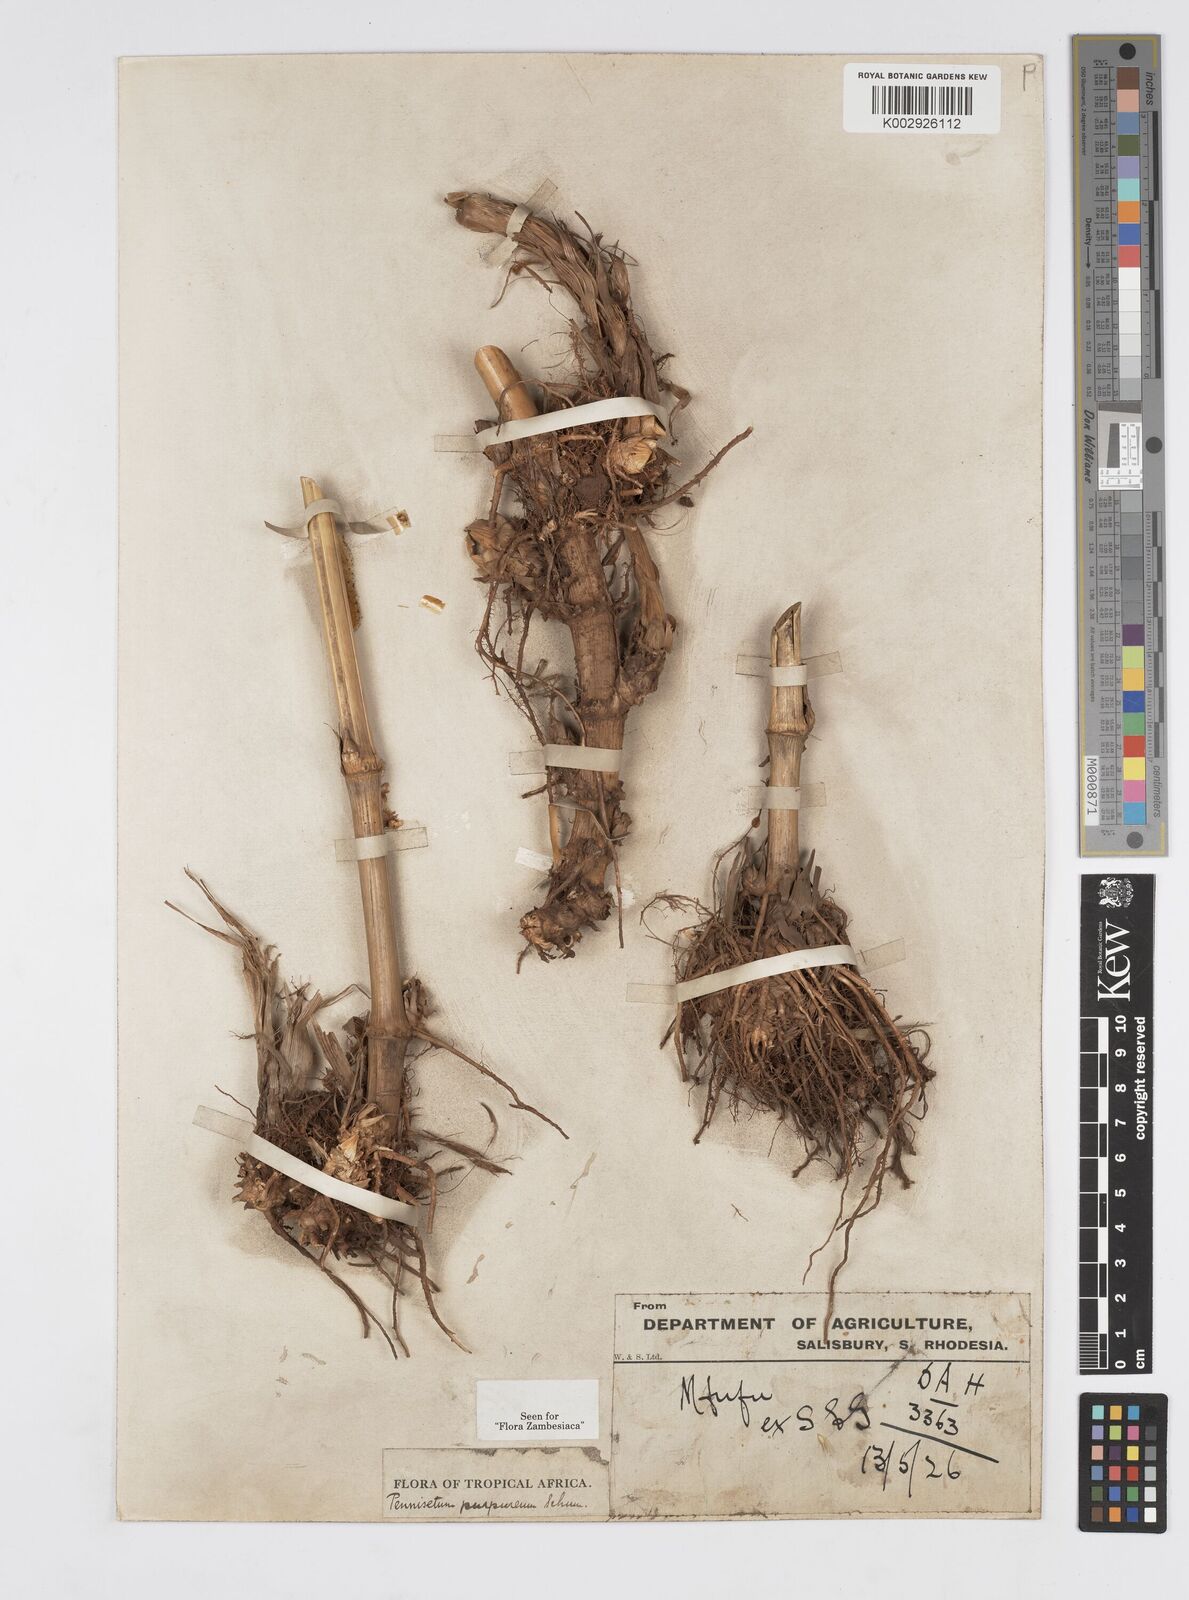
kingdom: Plantae
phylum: Tracheophyta
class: Liliopsida
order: Poales
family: Poaceae
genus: Cenchrus
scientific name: Cenchrus purpureus
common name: Elephant grass
